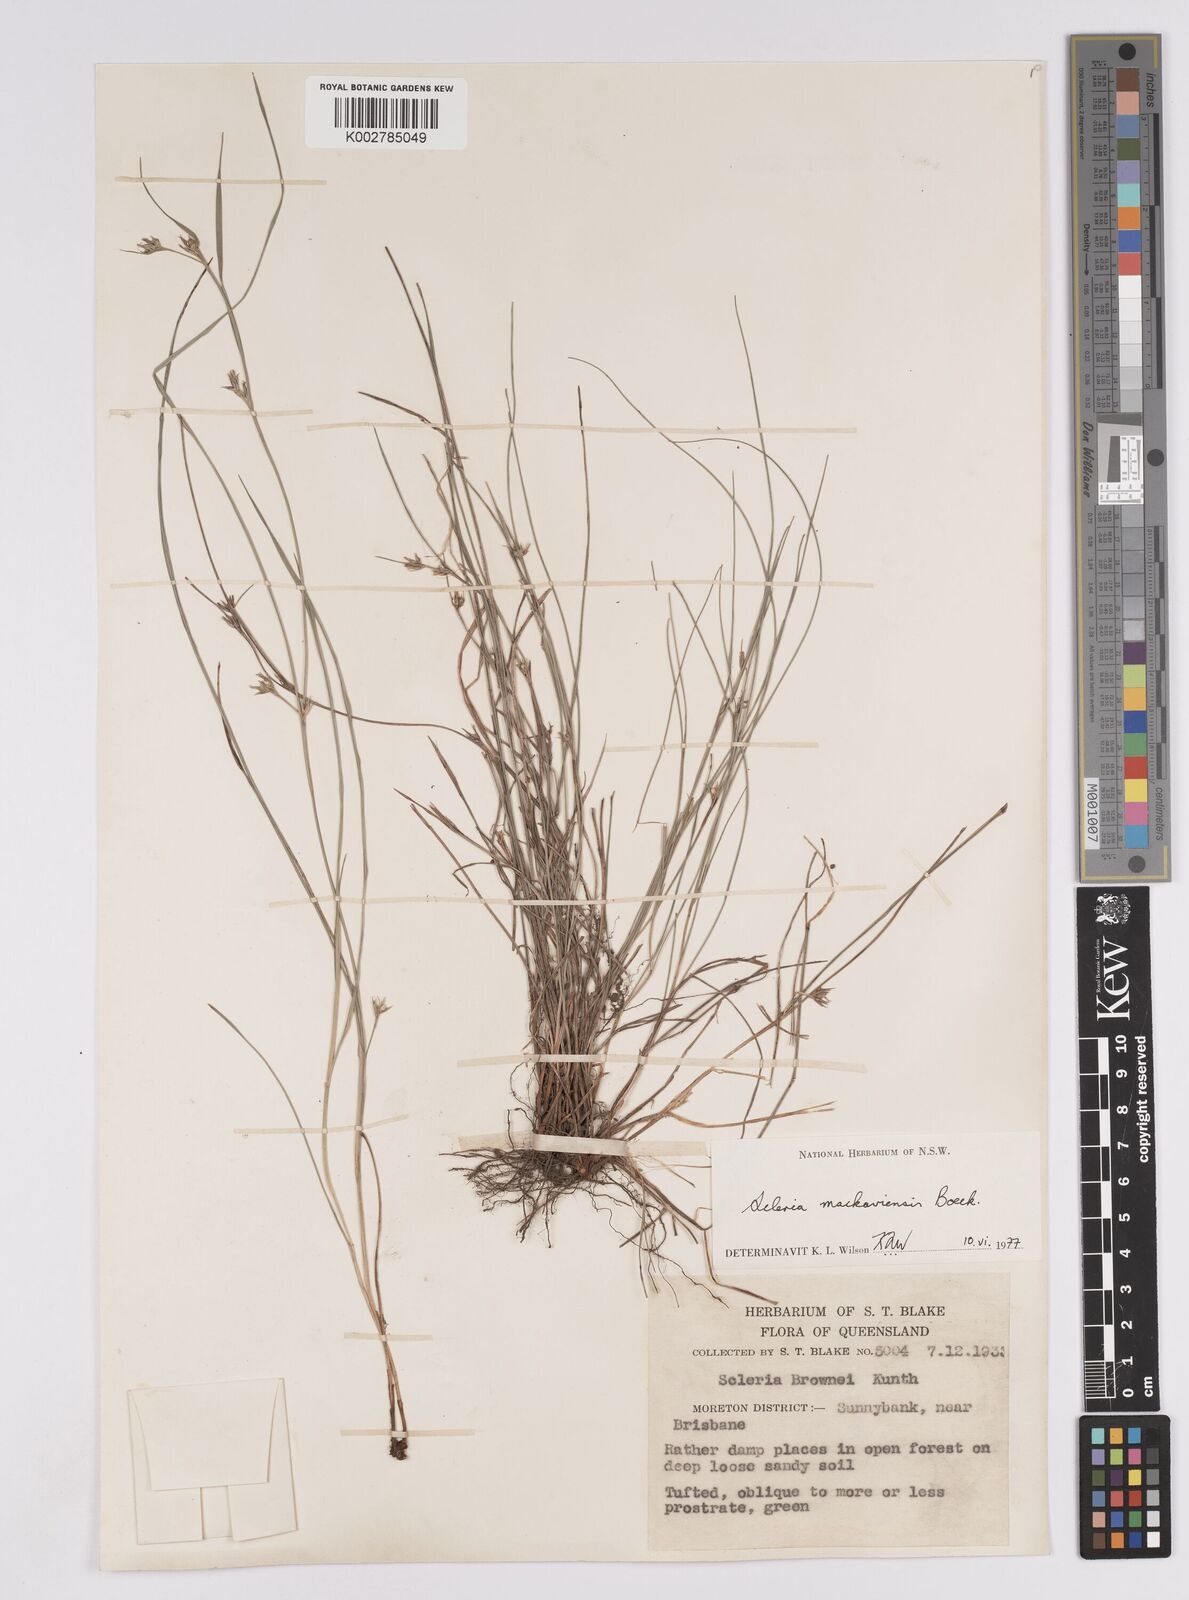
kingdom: Plantae
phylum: Tracheophyta
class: Liliopsida
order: Poales
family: Cyperaceae
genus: Scleria
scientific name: Scleria mackaviensis
